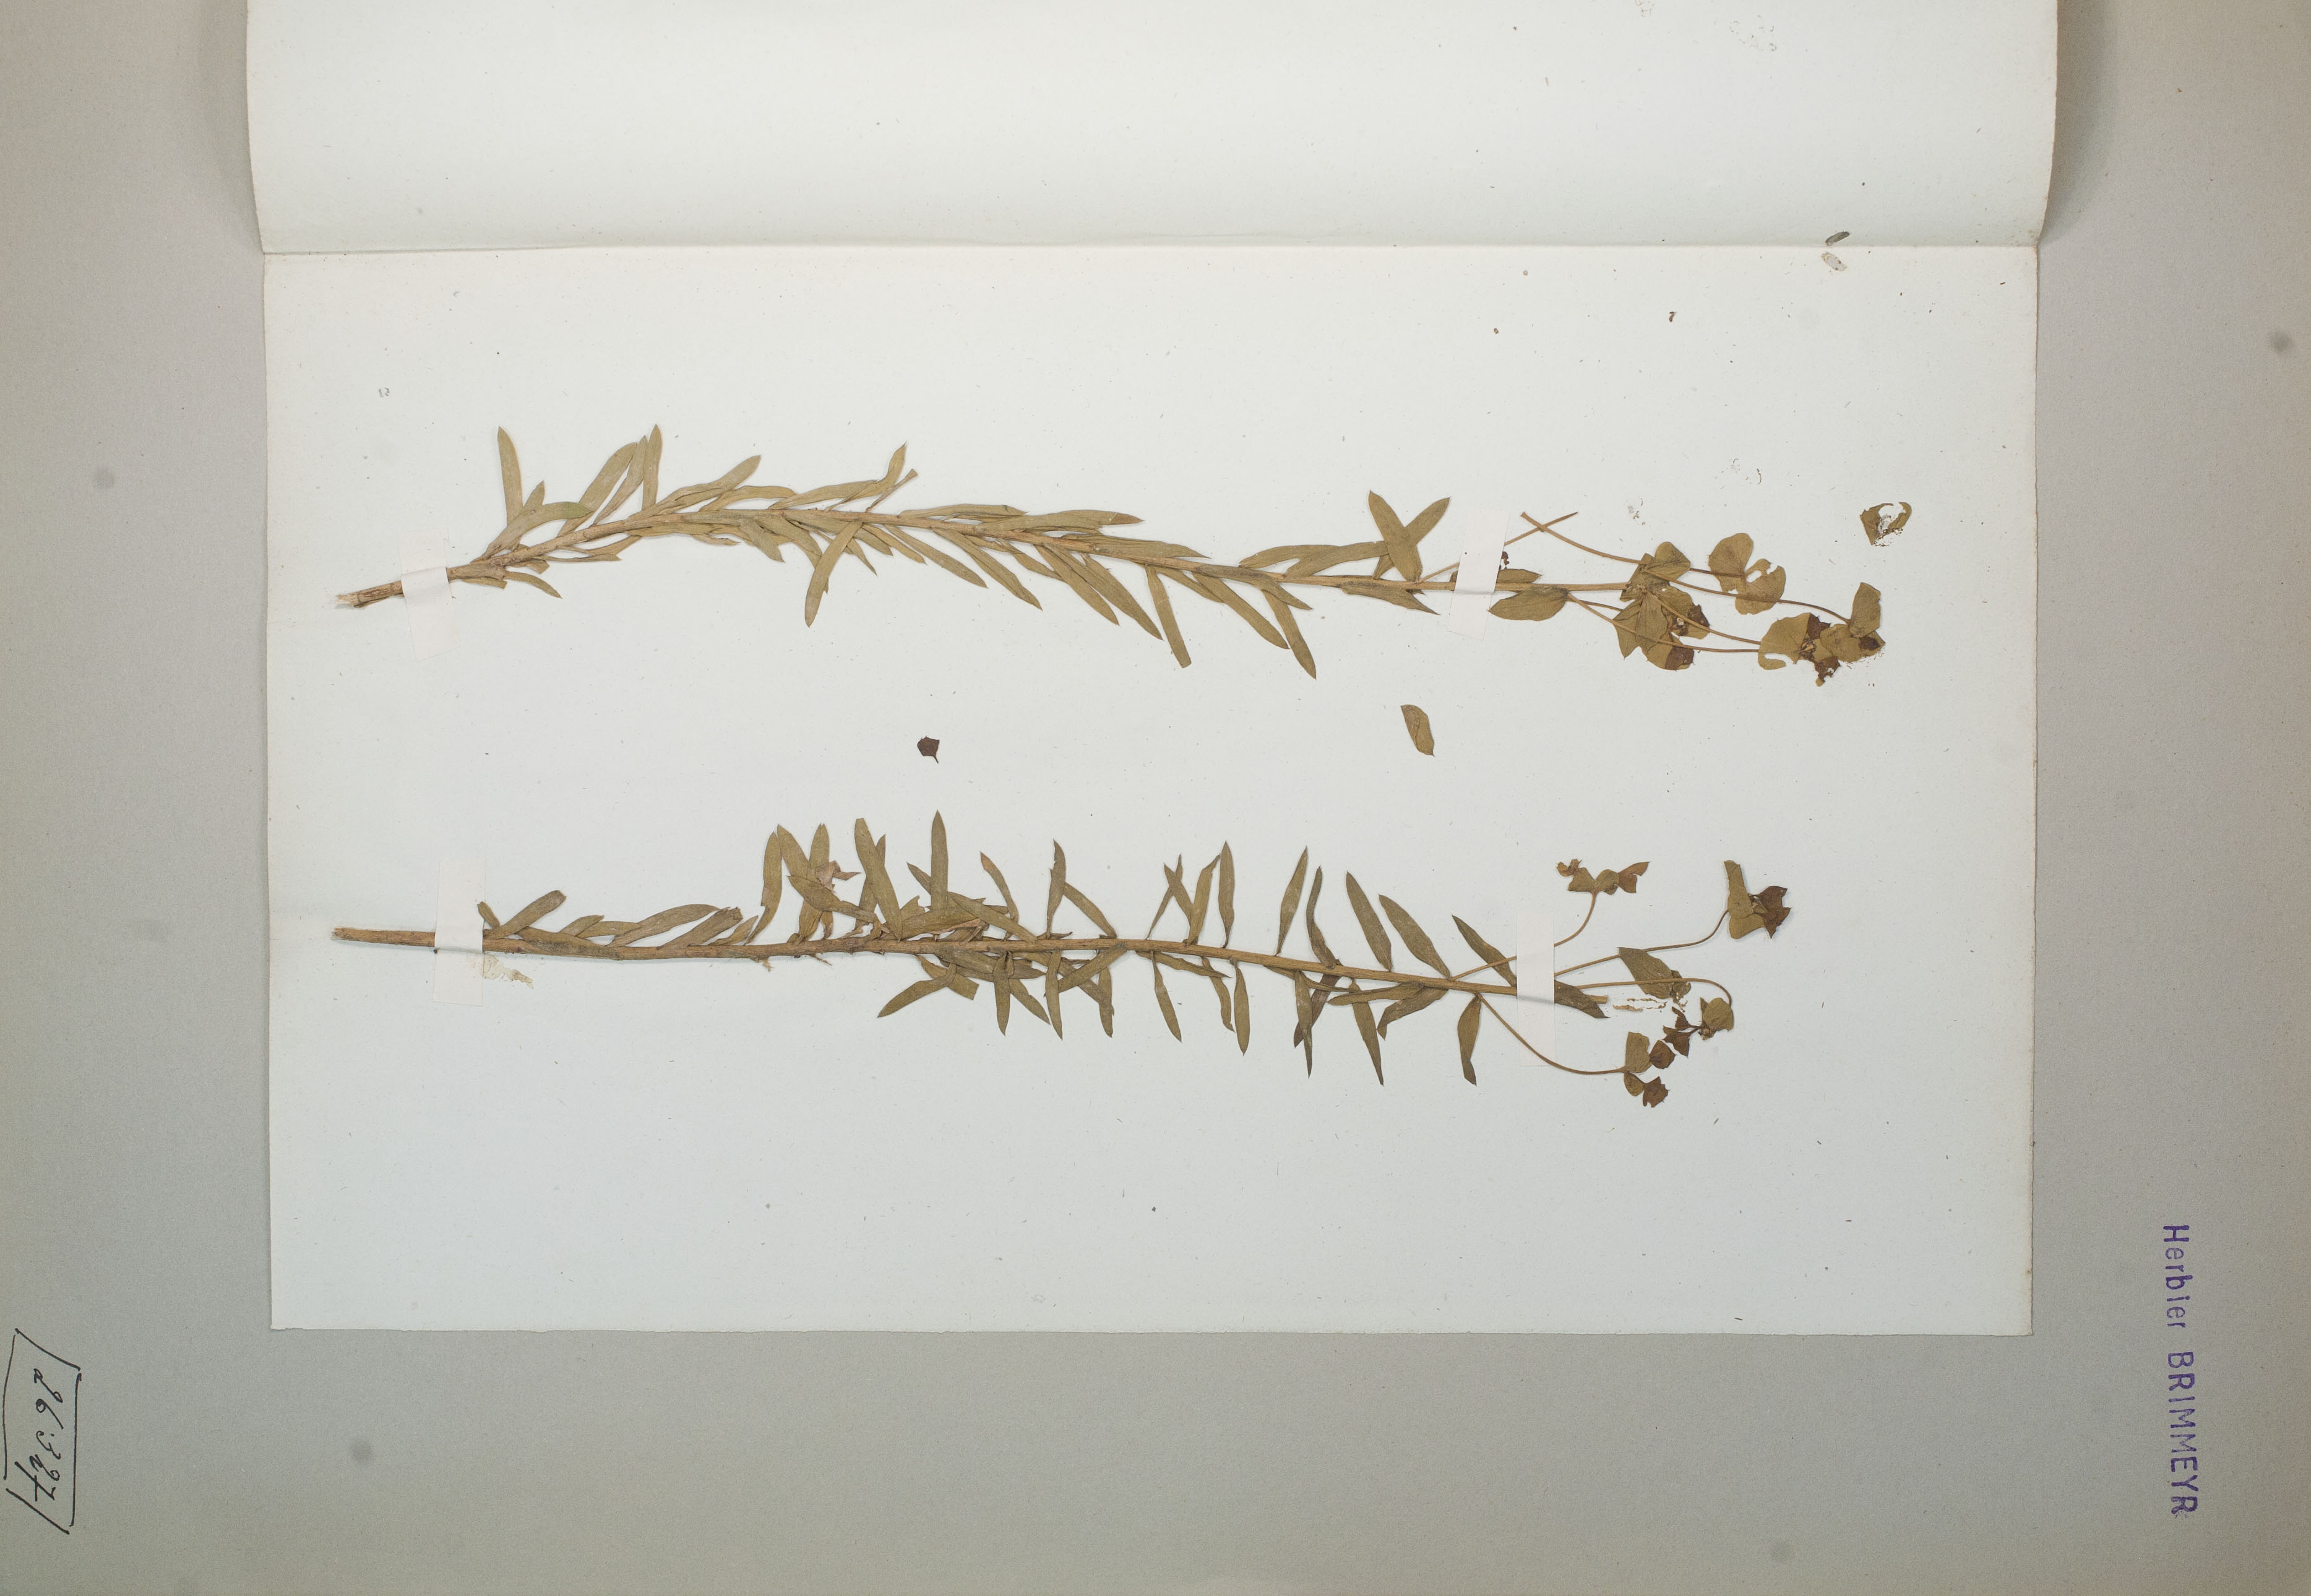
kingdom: Plantae
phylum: Tracheophyta
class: Magnoliopsida
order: Malpighiales
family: Euphorbiaceae
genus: Euphorbia
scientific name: Euphorbia dulcis
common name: Sweet spurge
